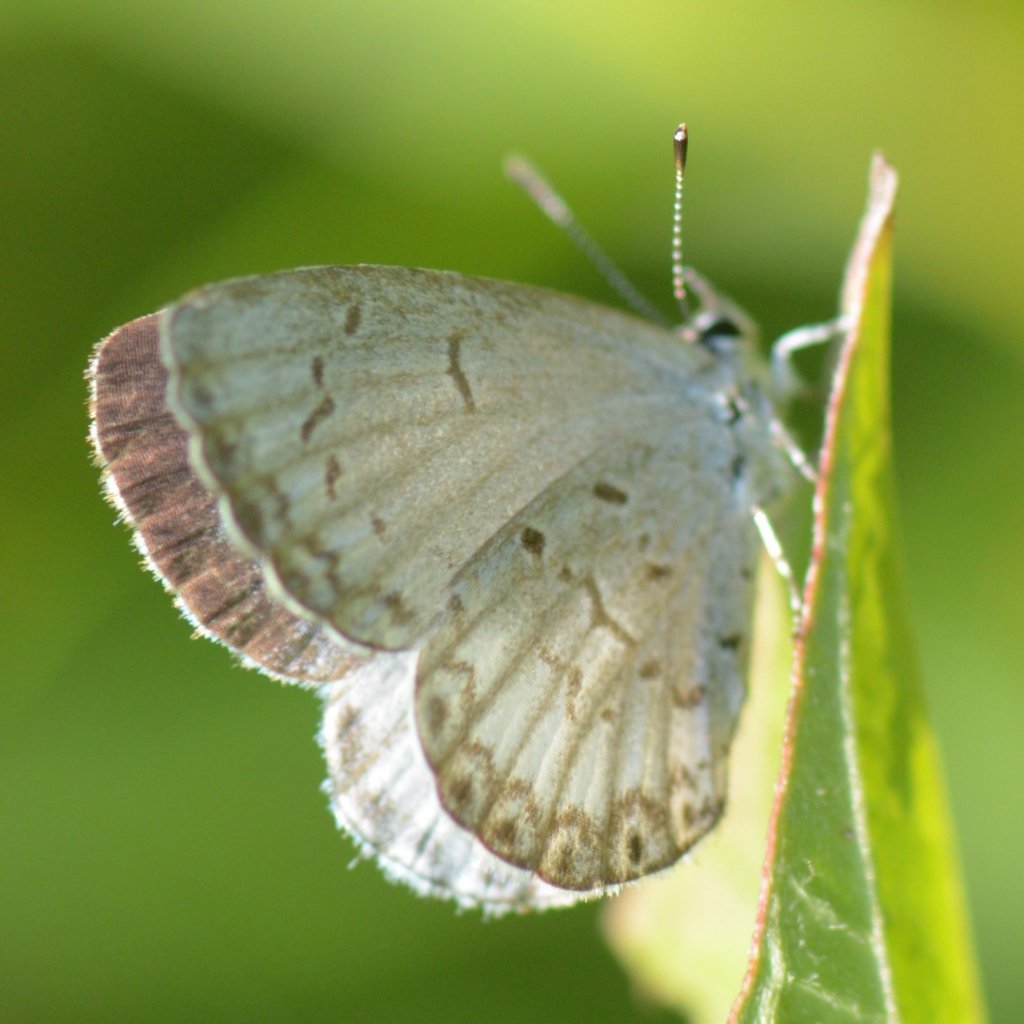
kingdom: Animalia
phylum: Arthropoda
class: Insecta
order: Lepidoptera
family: Lycaenidae
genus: Celastrina
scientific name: Celastrina lucia
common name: Northern Spring Azure
